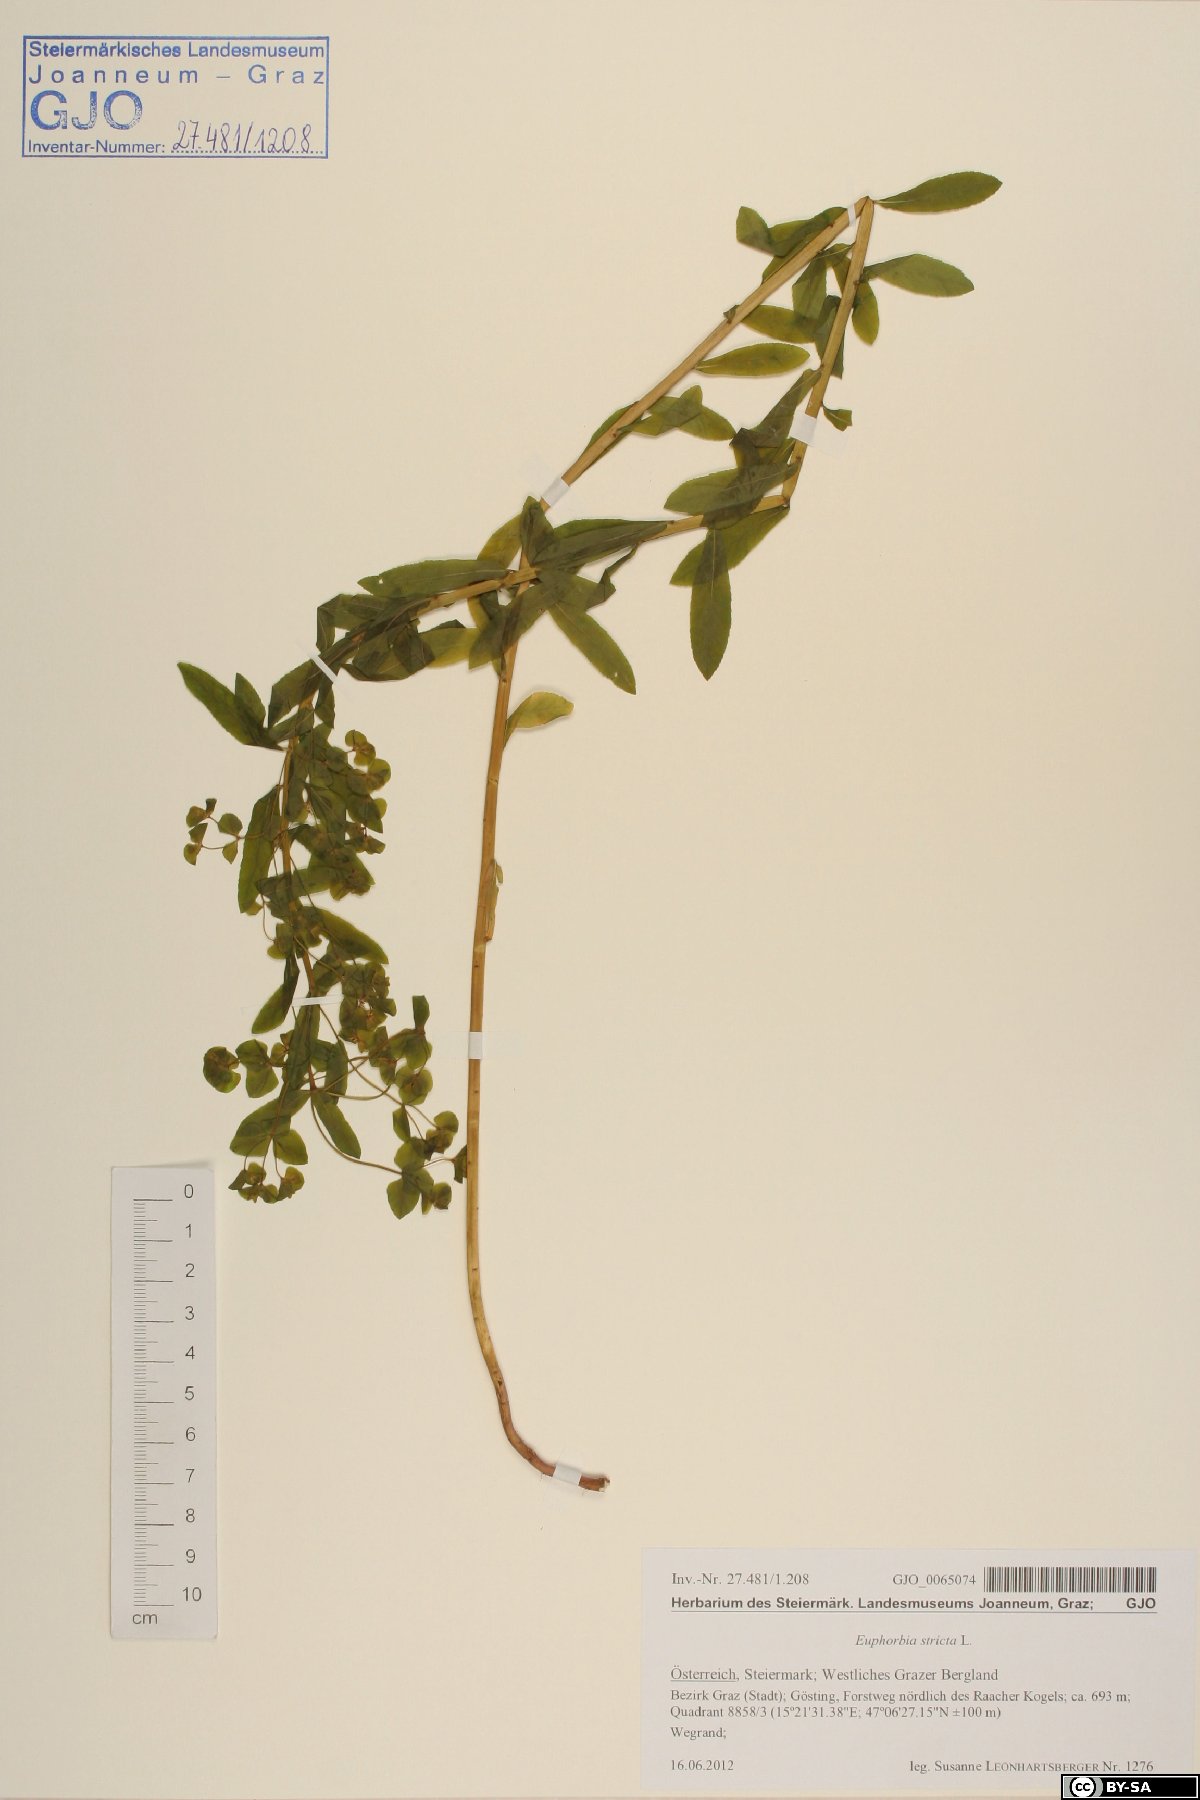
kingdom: Plantae
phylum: Tracheophyta
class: Magnoliopsida
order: Malpighiales
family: Euphorbiaceae
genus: Euphorbia
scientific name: Euphorbia stricta
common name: Upright spurge
